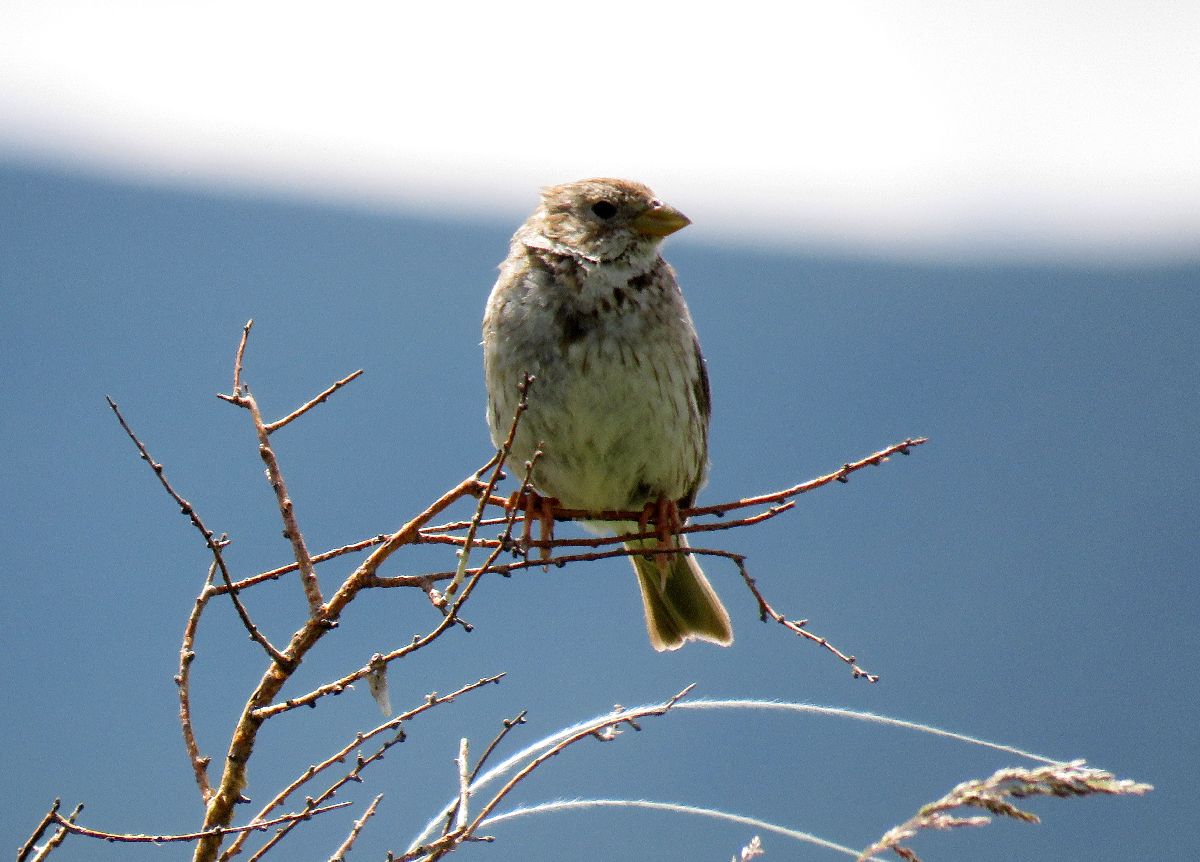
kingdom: Animalia
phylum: Chordata
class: Aves
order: Passeriformes
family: Emberizidae
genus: Emberiza
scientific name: Emberiza calandra
